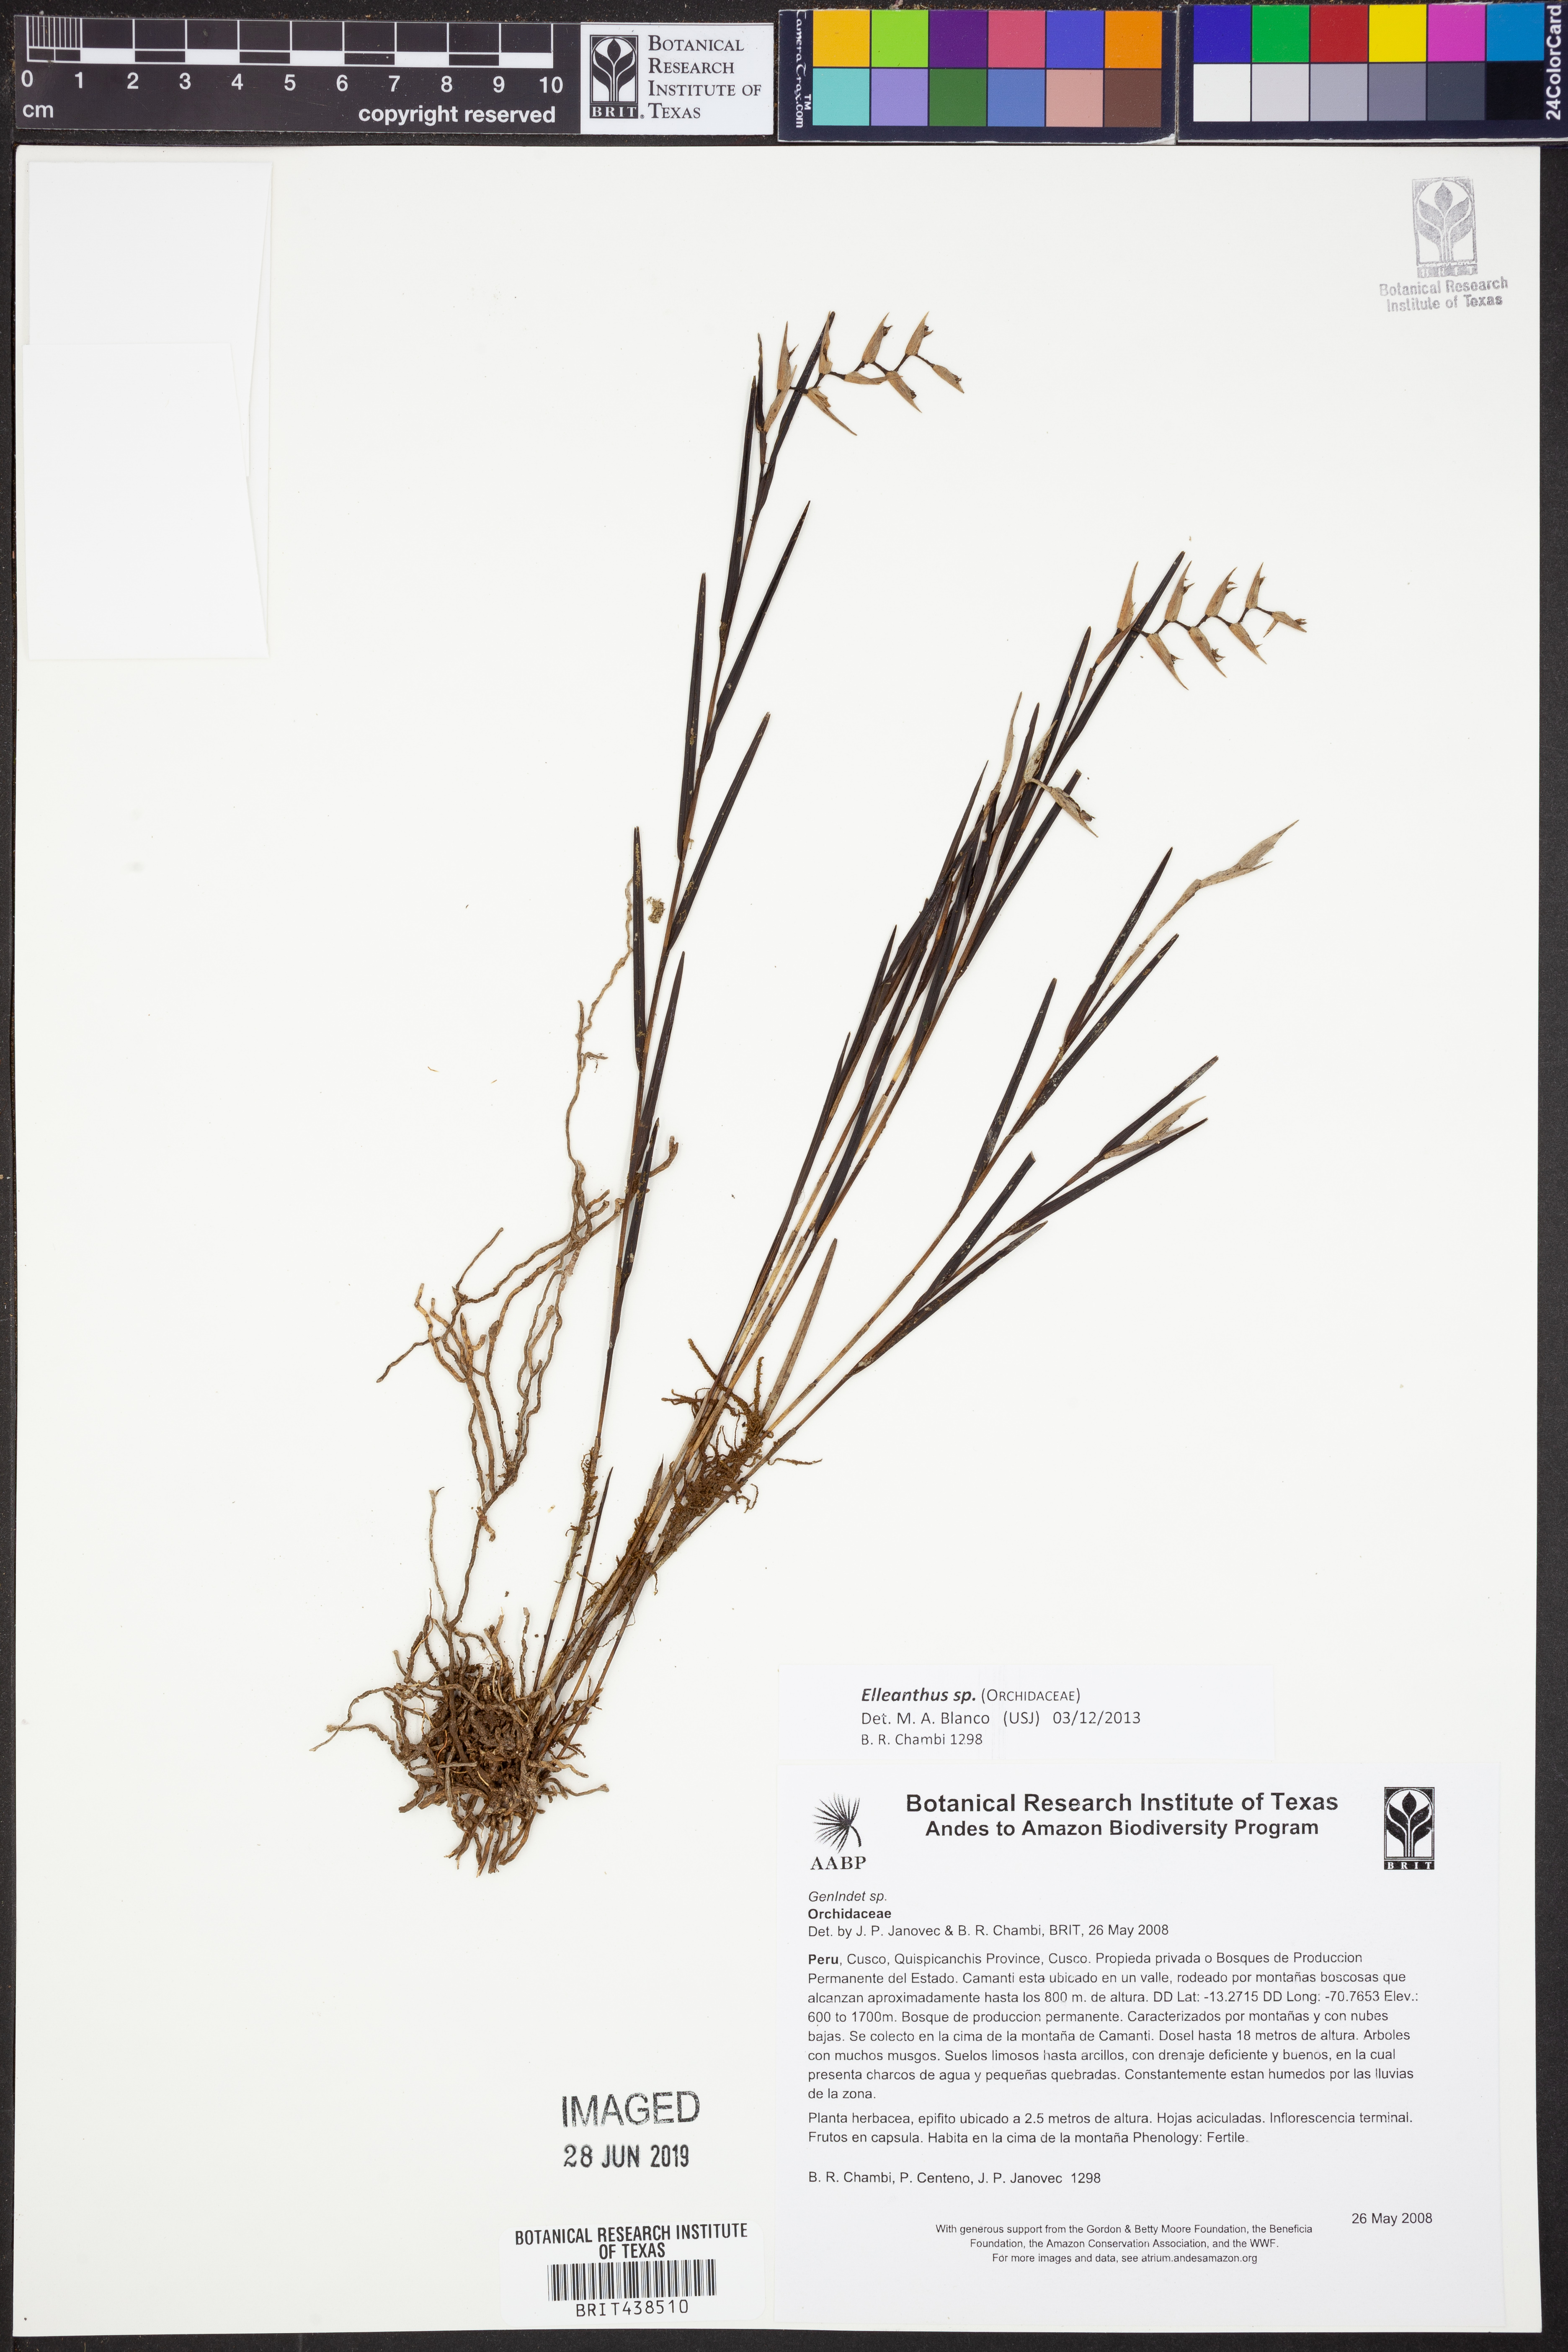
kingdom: Plantae
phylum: Tracheophyta
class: Liliopsida
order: Asparagales
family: Orchidaceae
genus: Elleanthus
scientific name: Elleanthus
